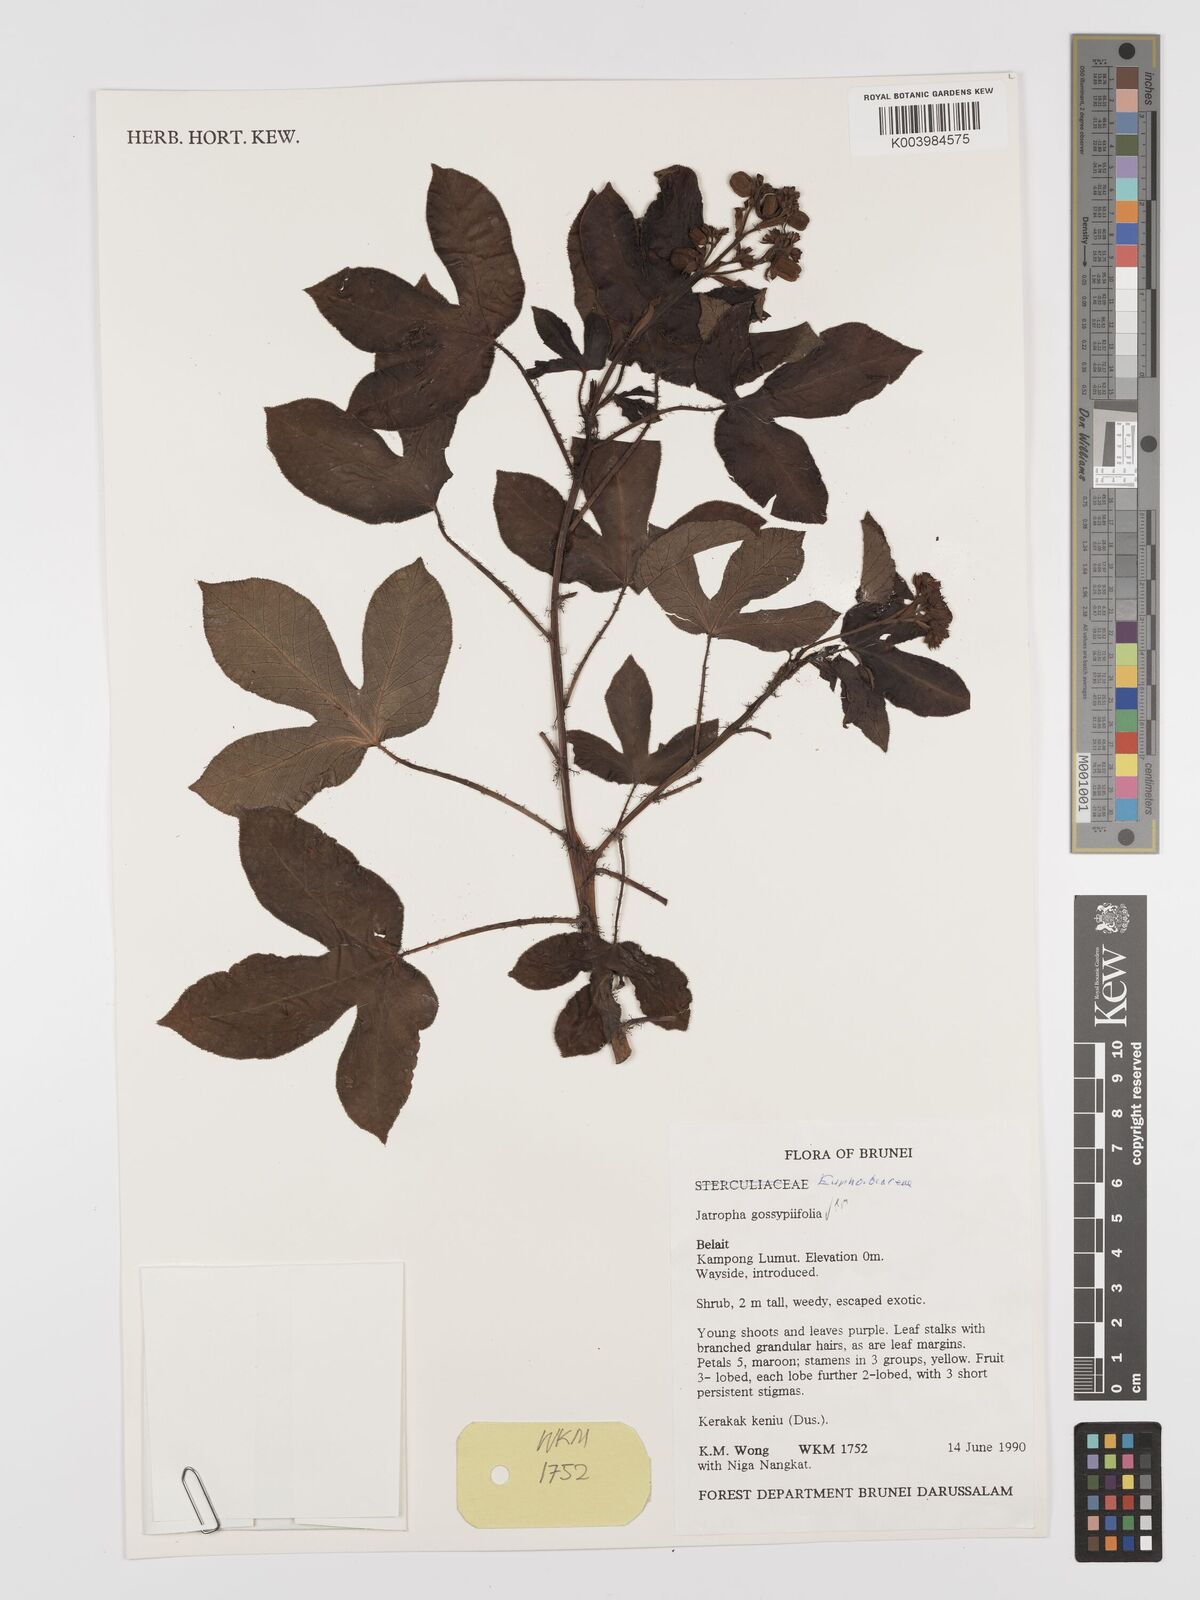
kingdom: Plantae
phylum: Tracheophyta
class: Magnoliopsida
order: Malpighiales
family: Euphorbiaceae
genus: Jatropha
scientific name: Jatropha gossypiifolia
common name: Bellyache bush
